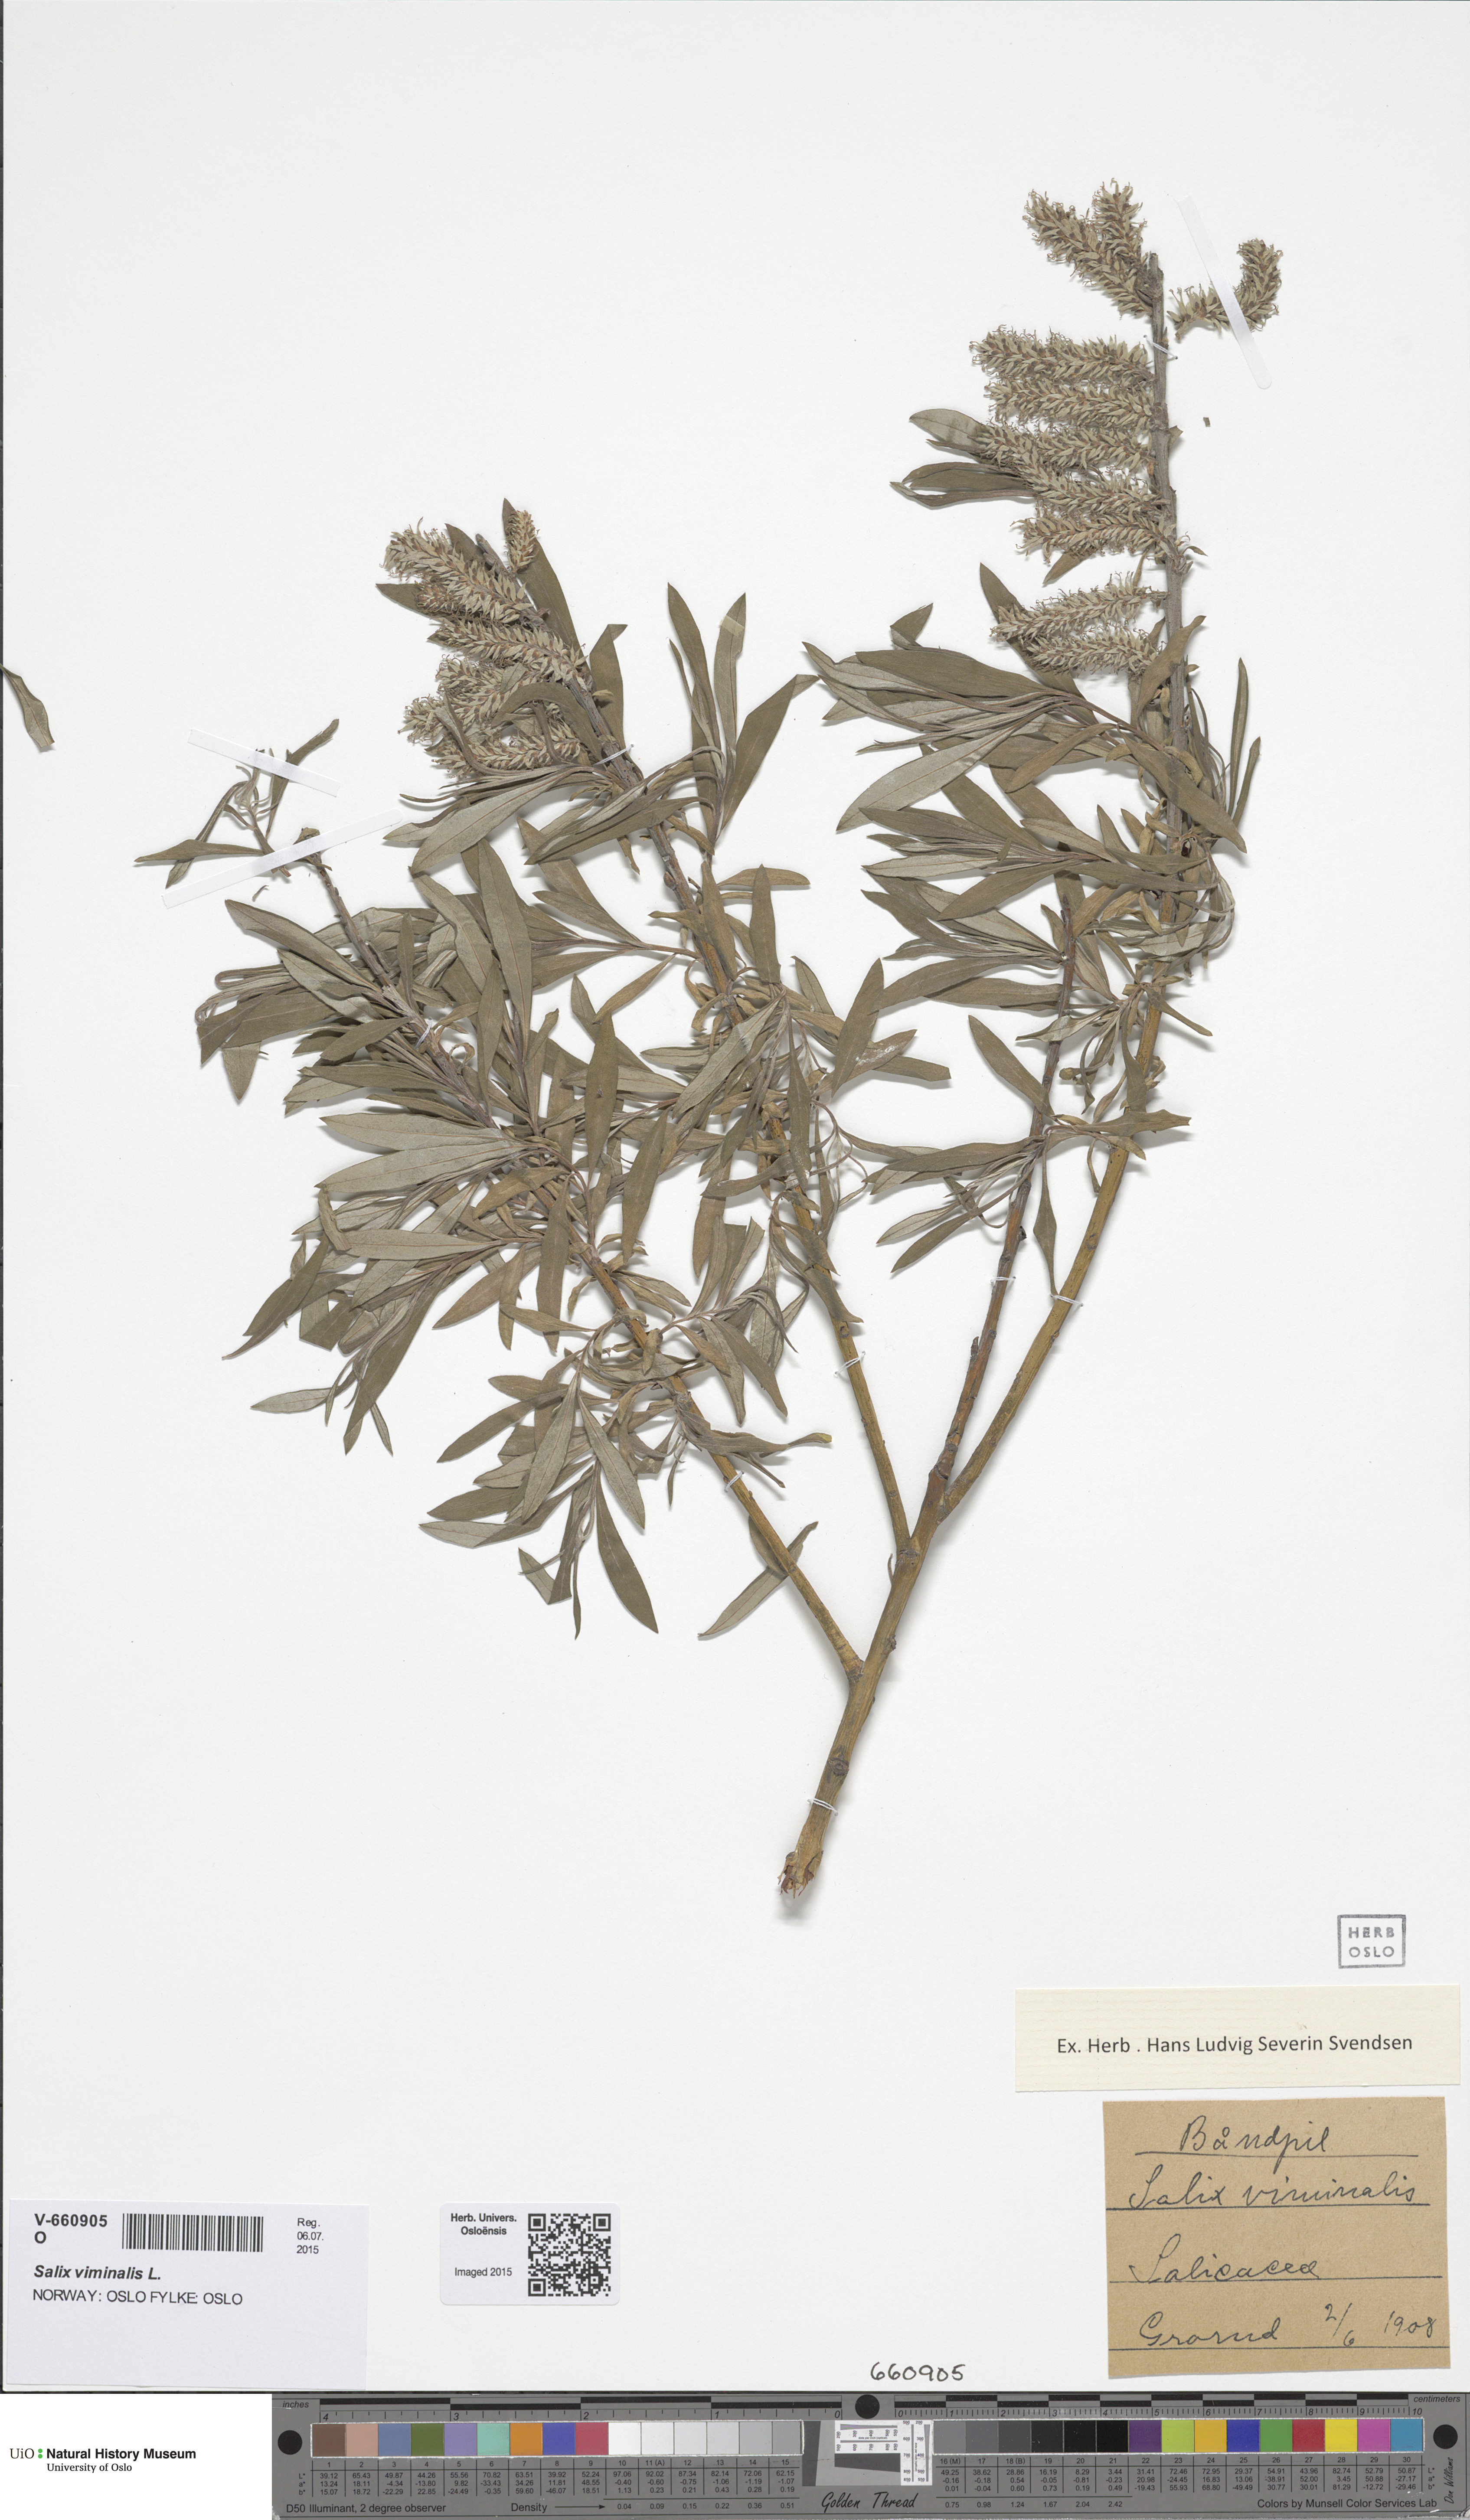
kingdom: Plantae
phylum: Tracheophyta
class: Magnoliopsida
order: Malpighiales
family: Salicaceae
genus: Salix
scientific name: Salix viminalis
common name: Osier
